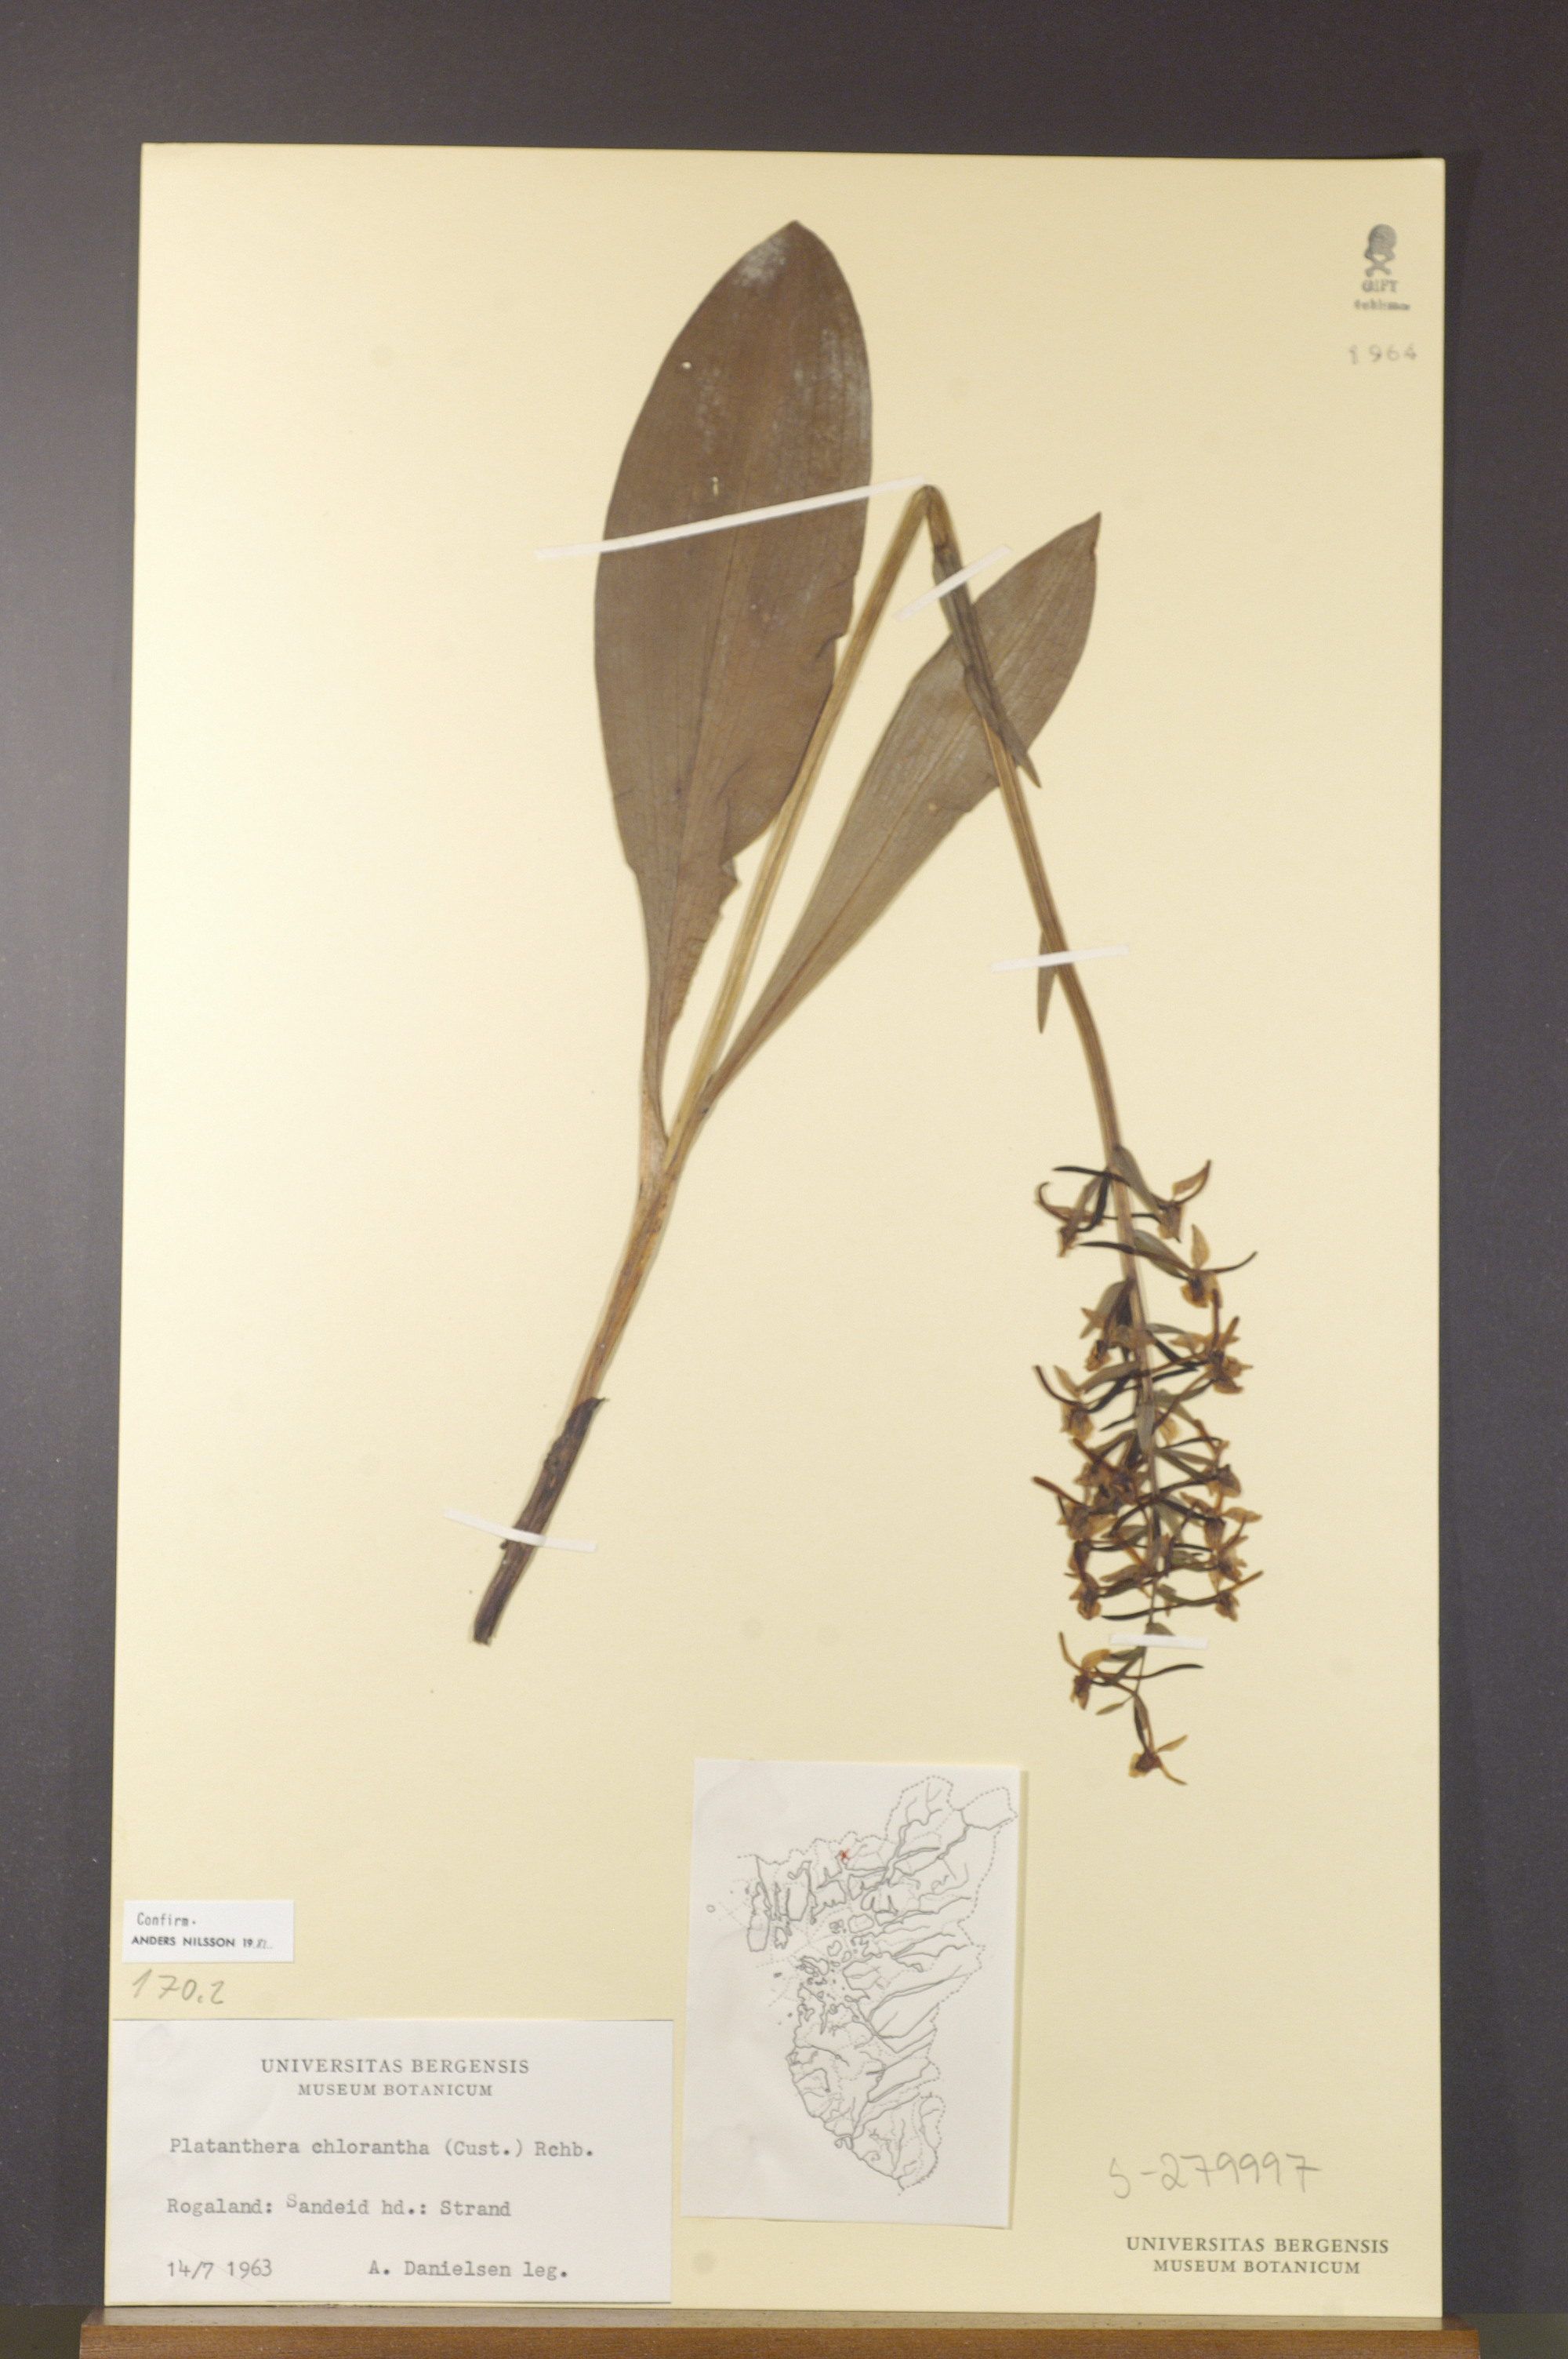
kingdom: Plantae
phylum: Tracheophyta
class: Liliopsida
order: Asparagales
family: Orchidaceae
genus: Platanthera
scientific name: Platanthera chlorantha
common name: Greater butterfly-orchid
